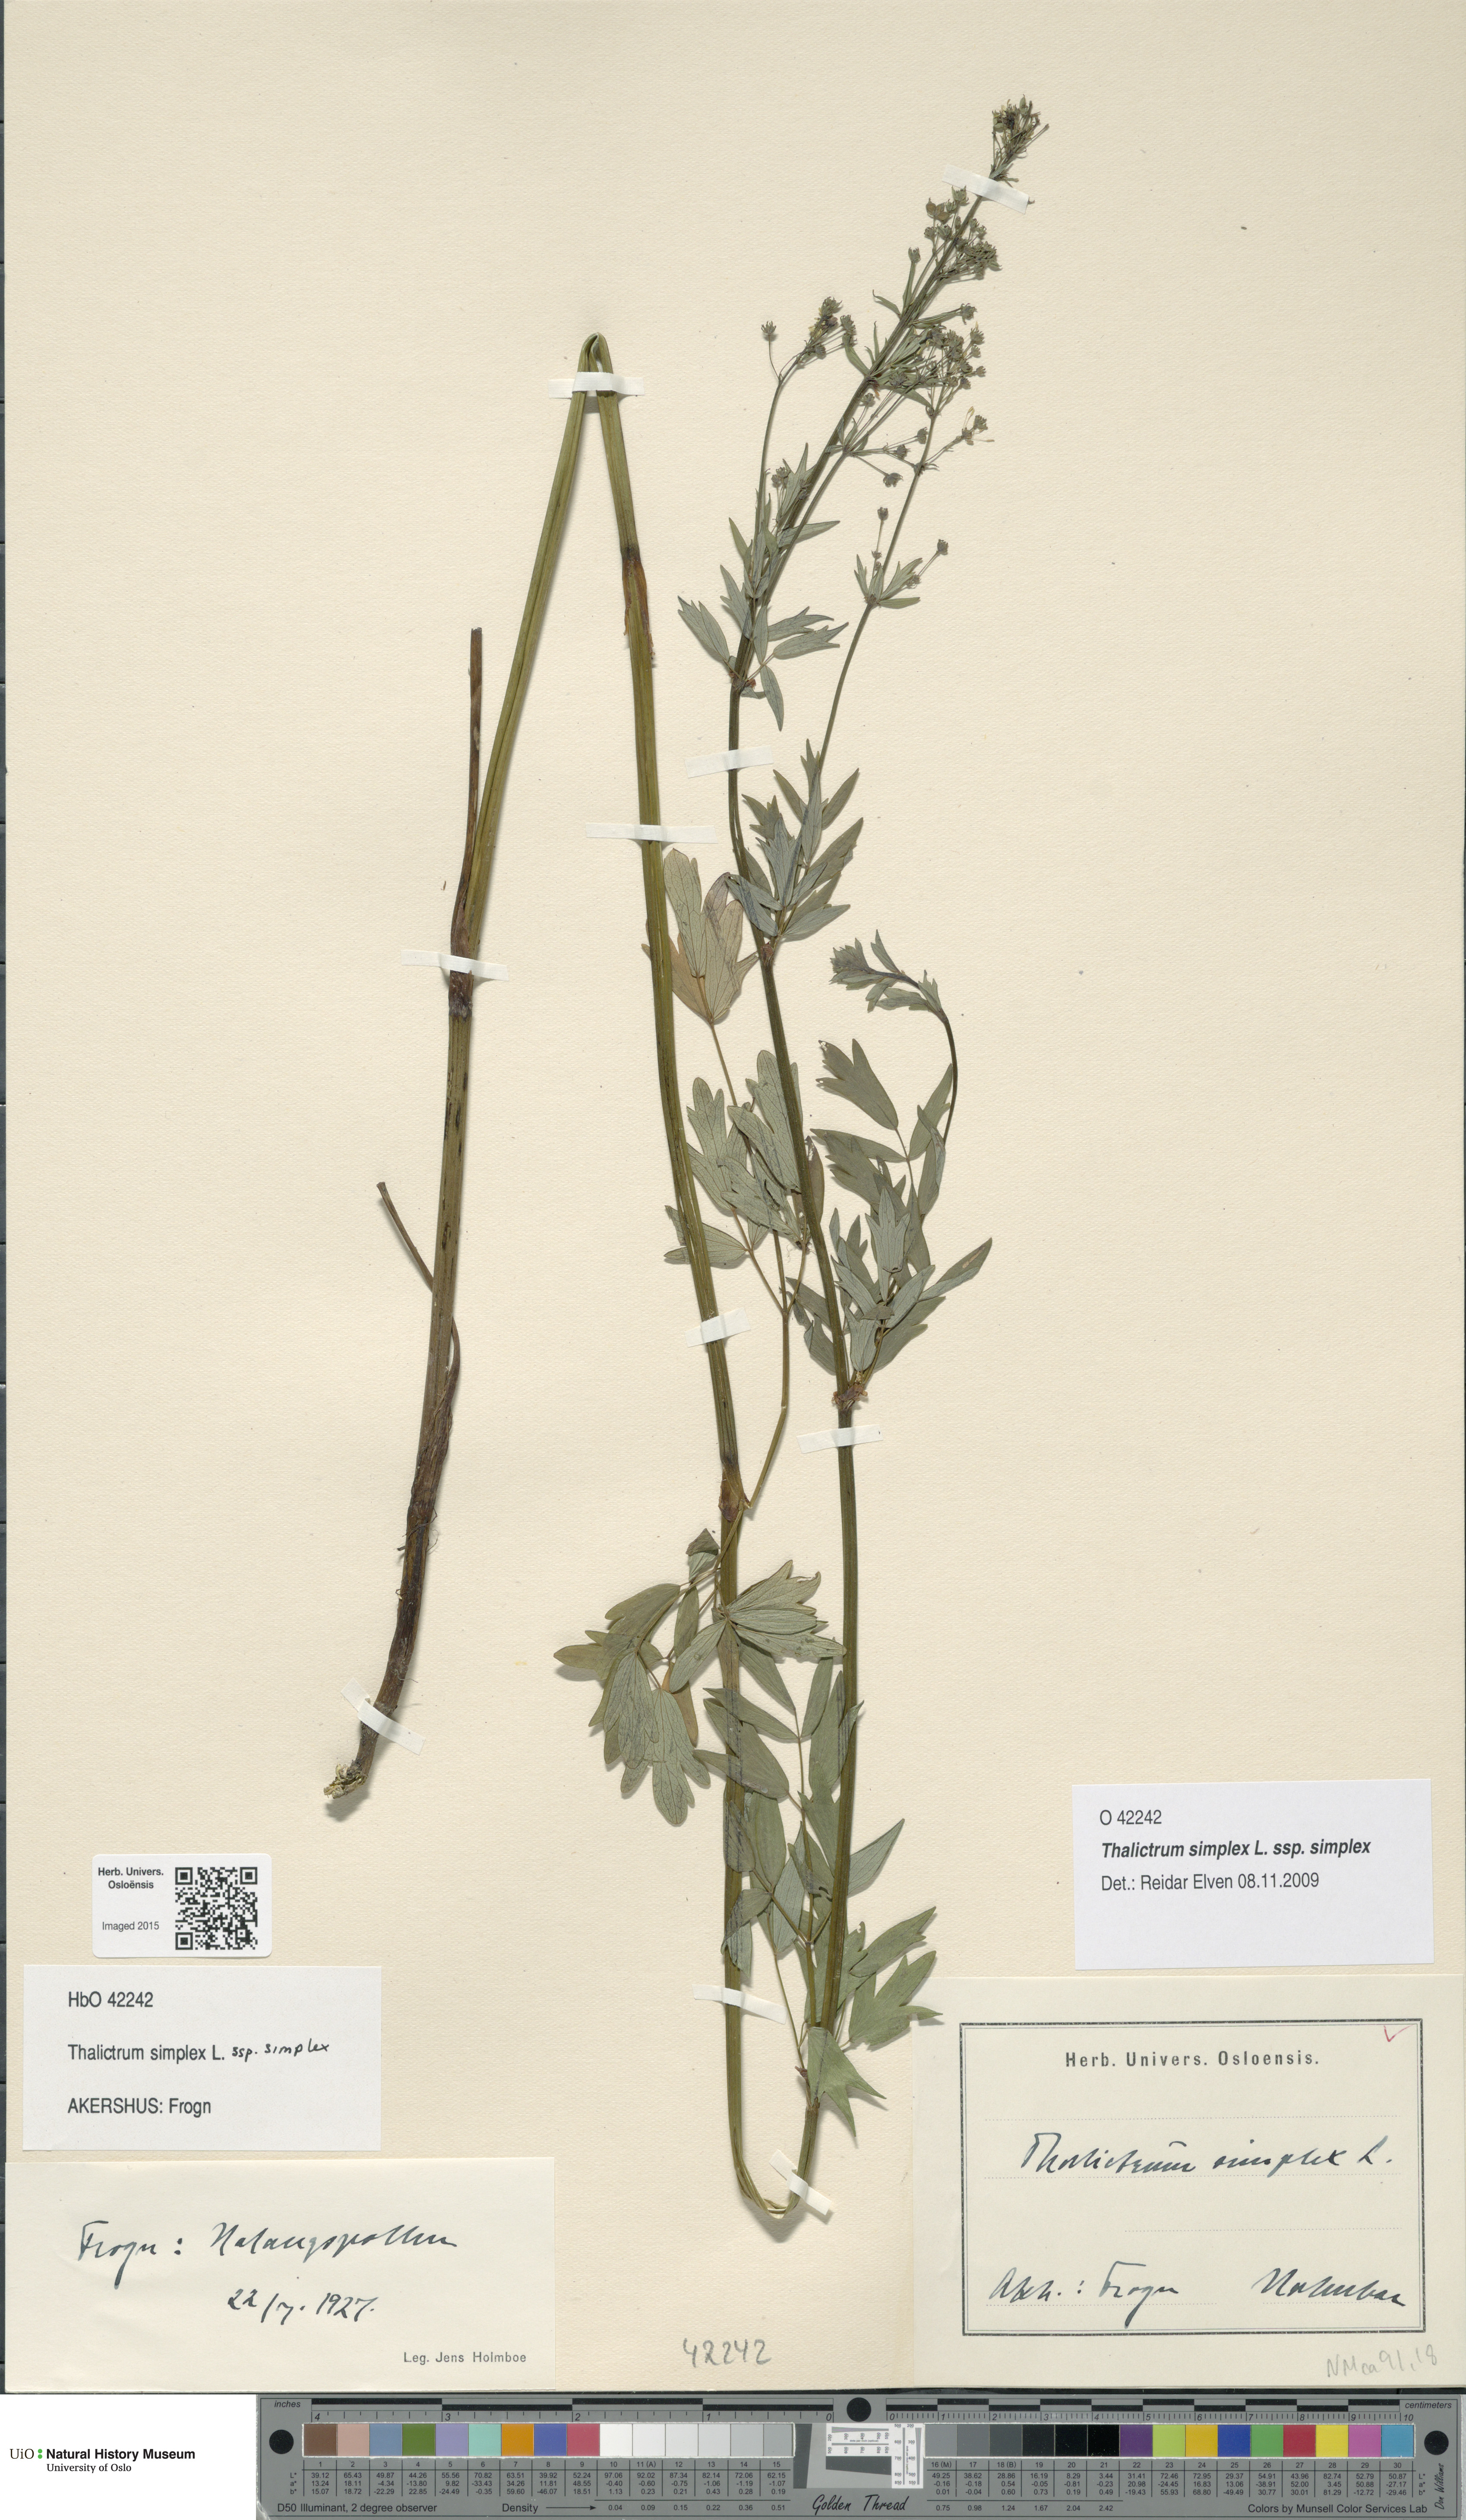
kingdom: Plantae
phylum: Tracheophyta
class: Magnoliopsida
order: Ranunculales
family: Ranunculaceae
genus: Thalictrum
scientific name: Thalictrum simplex
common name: Small meadow-rue
